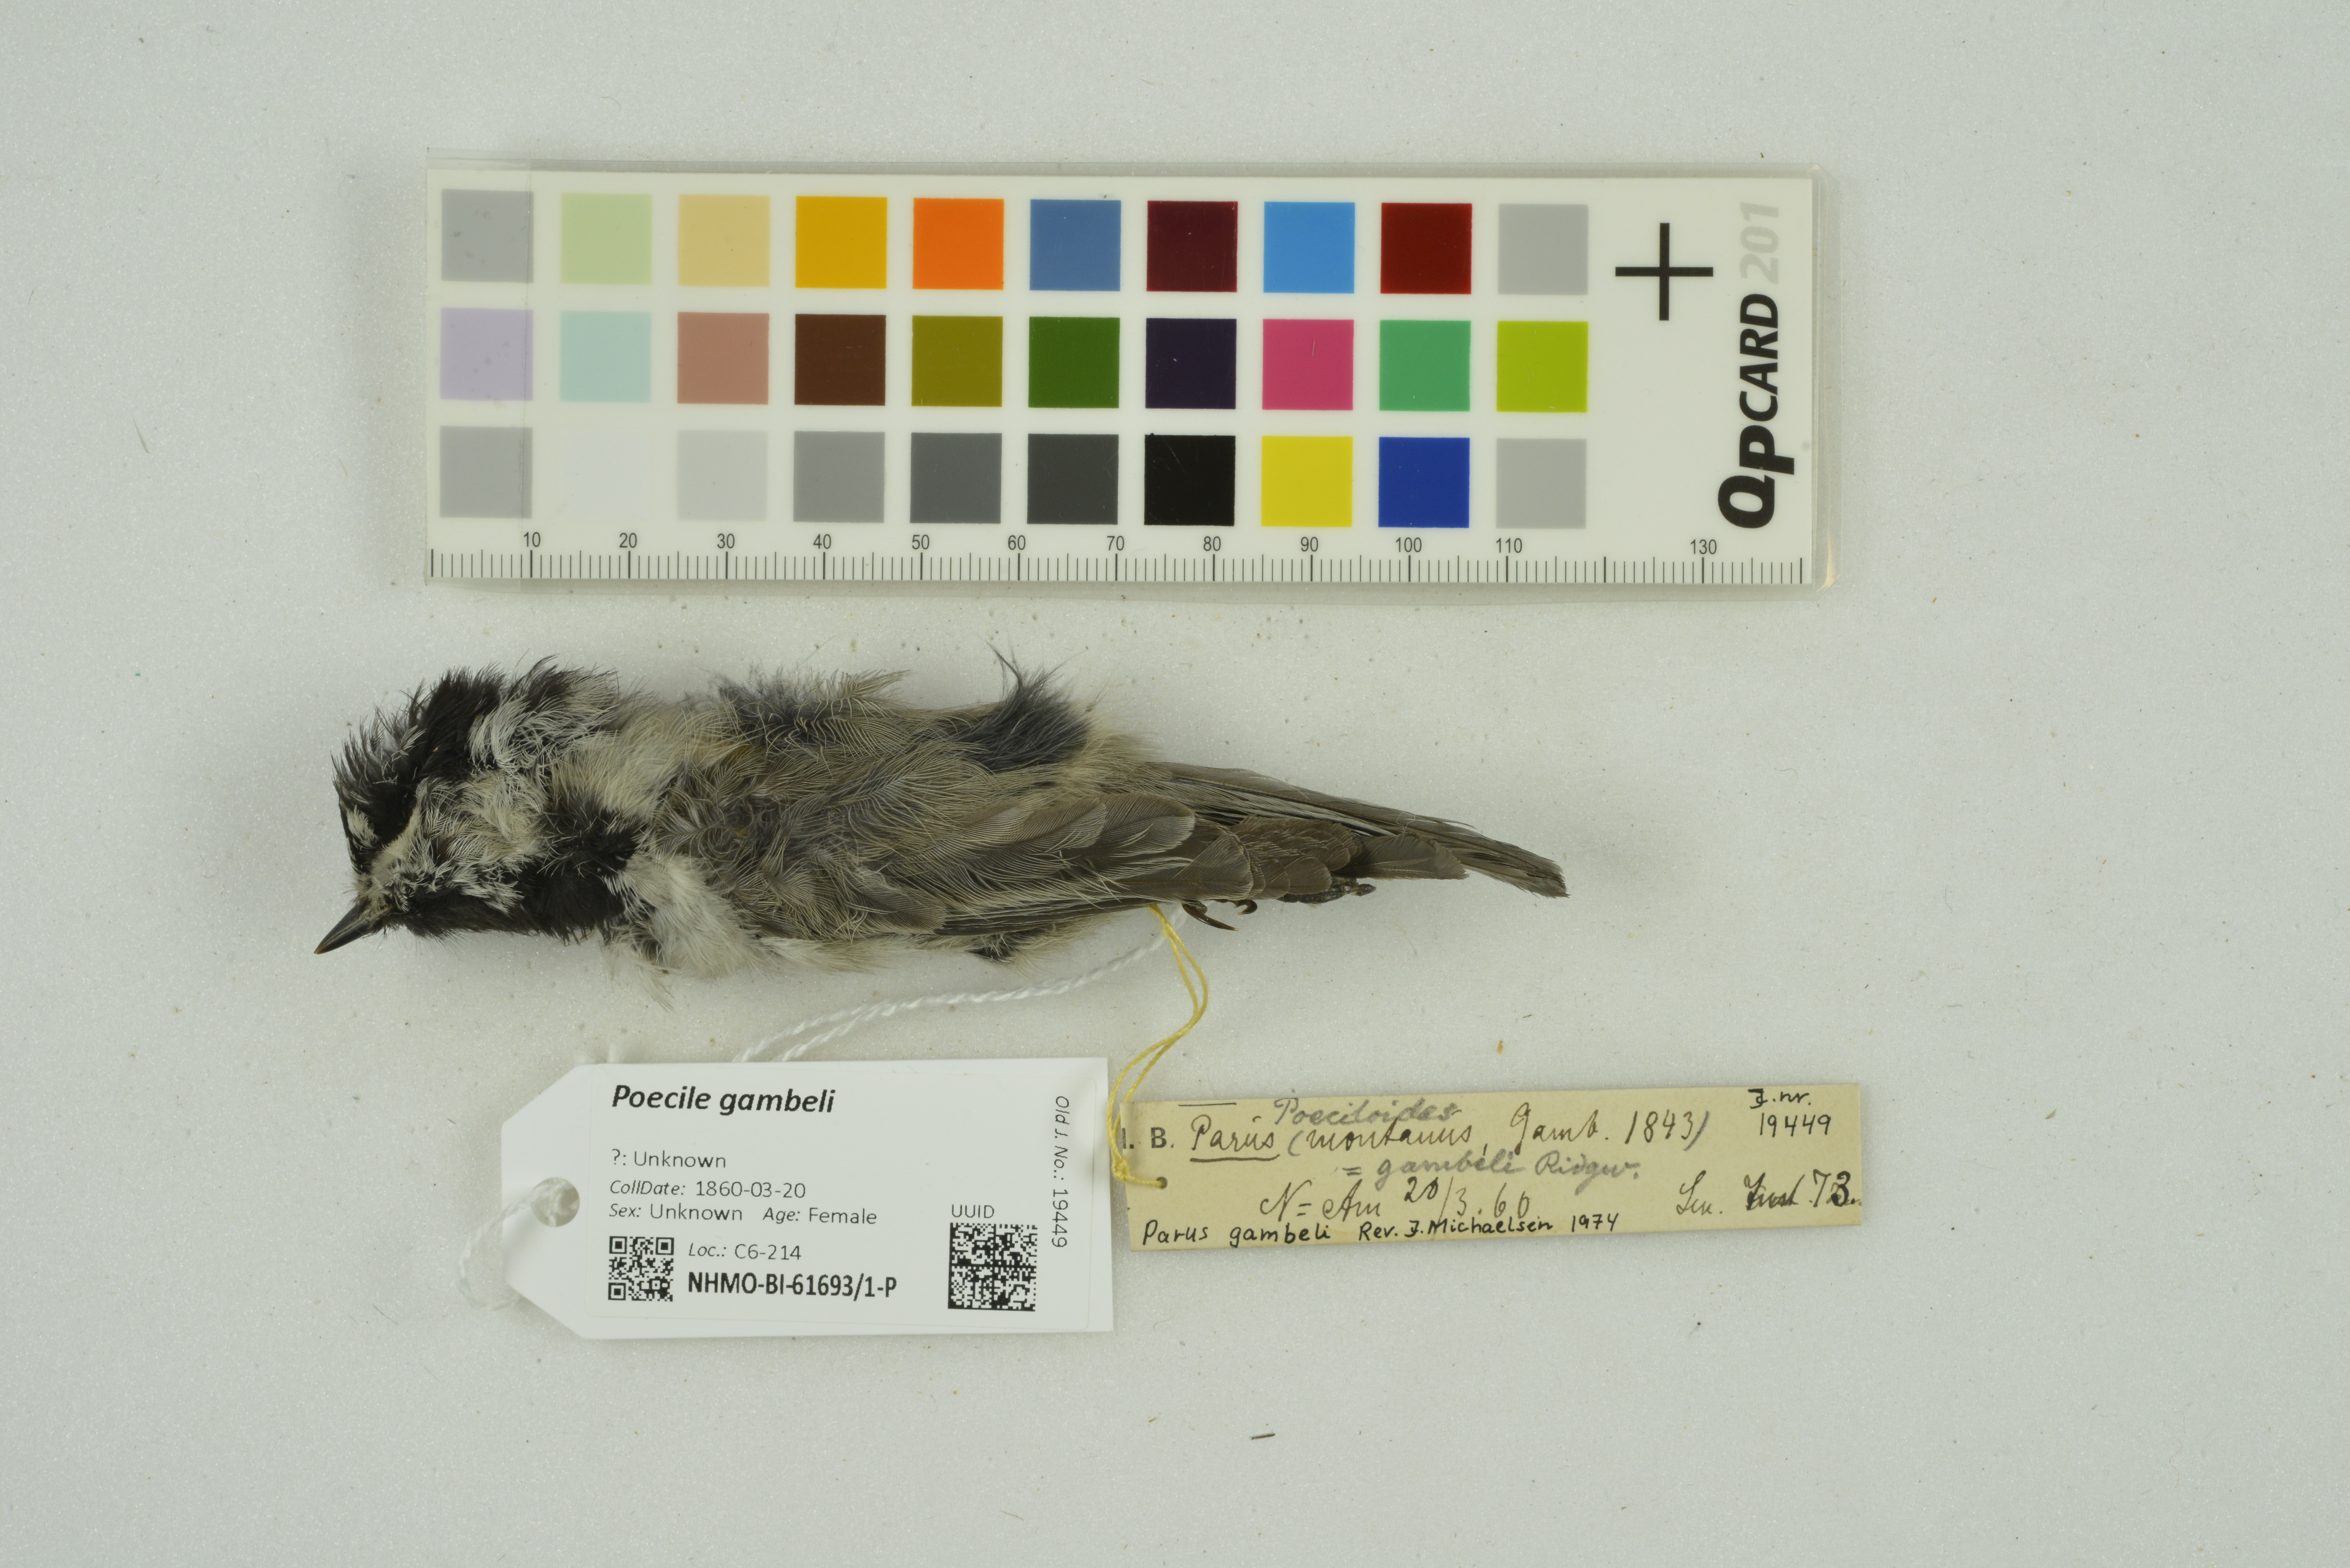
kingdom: Animalia
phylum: Chordata
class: Aves
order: Passeriformes
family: Paridae
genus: Poecile
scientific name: Poecile gambeli
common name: Mountain chickadee
